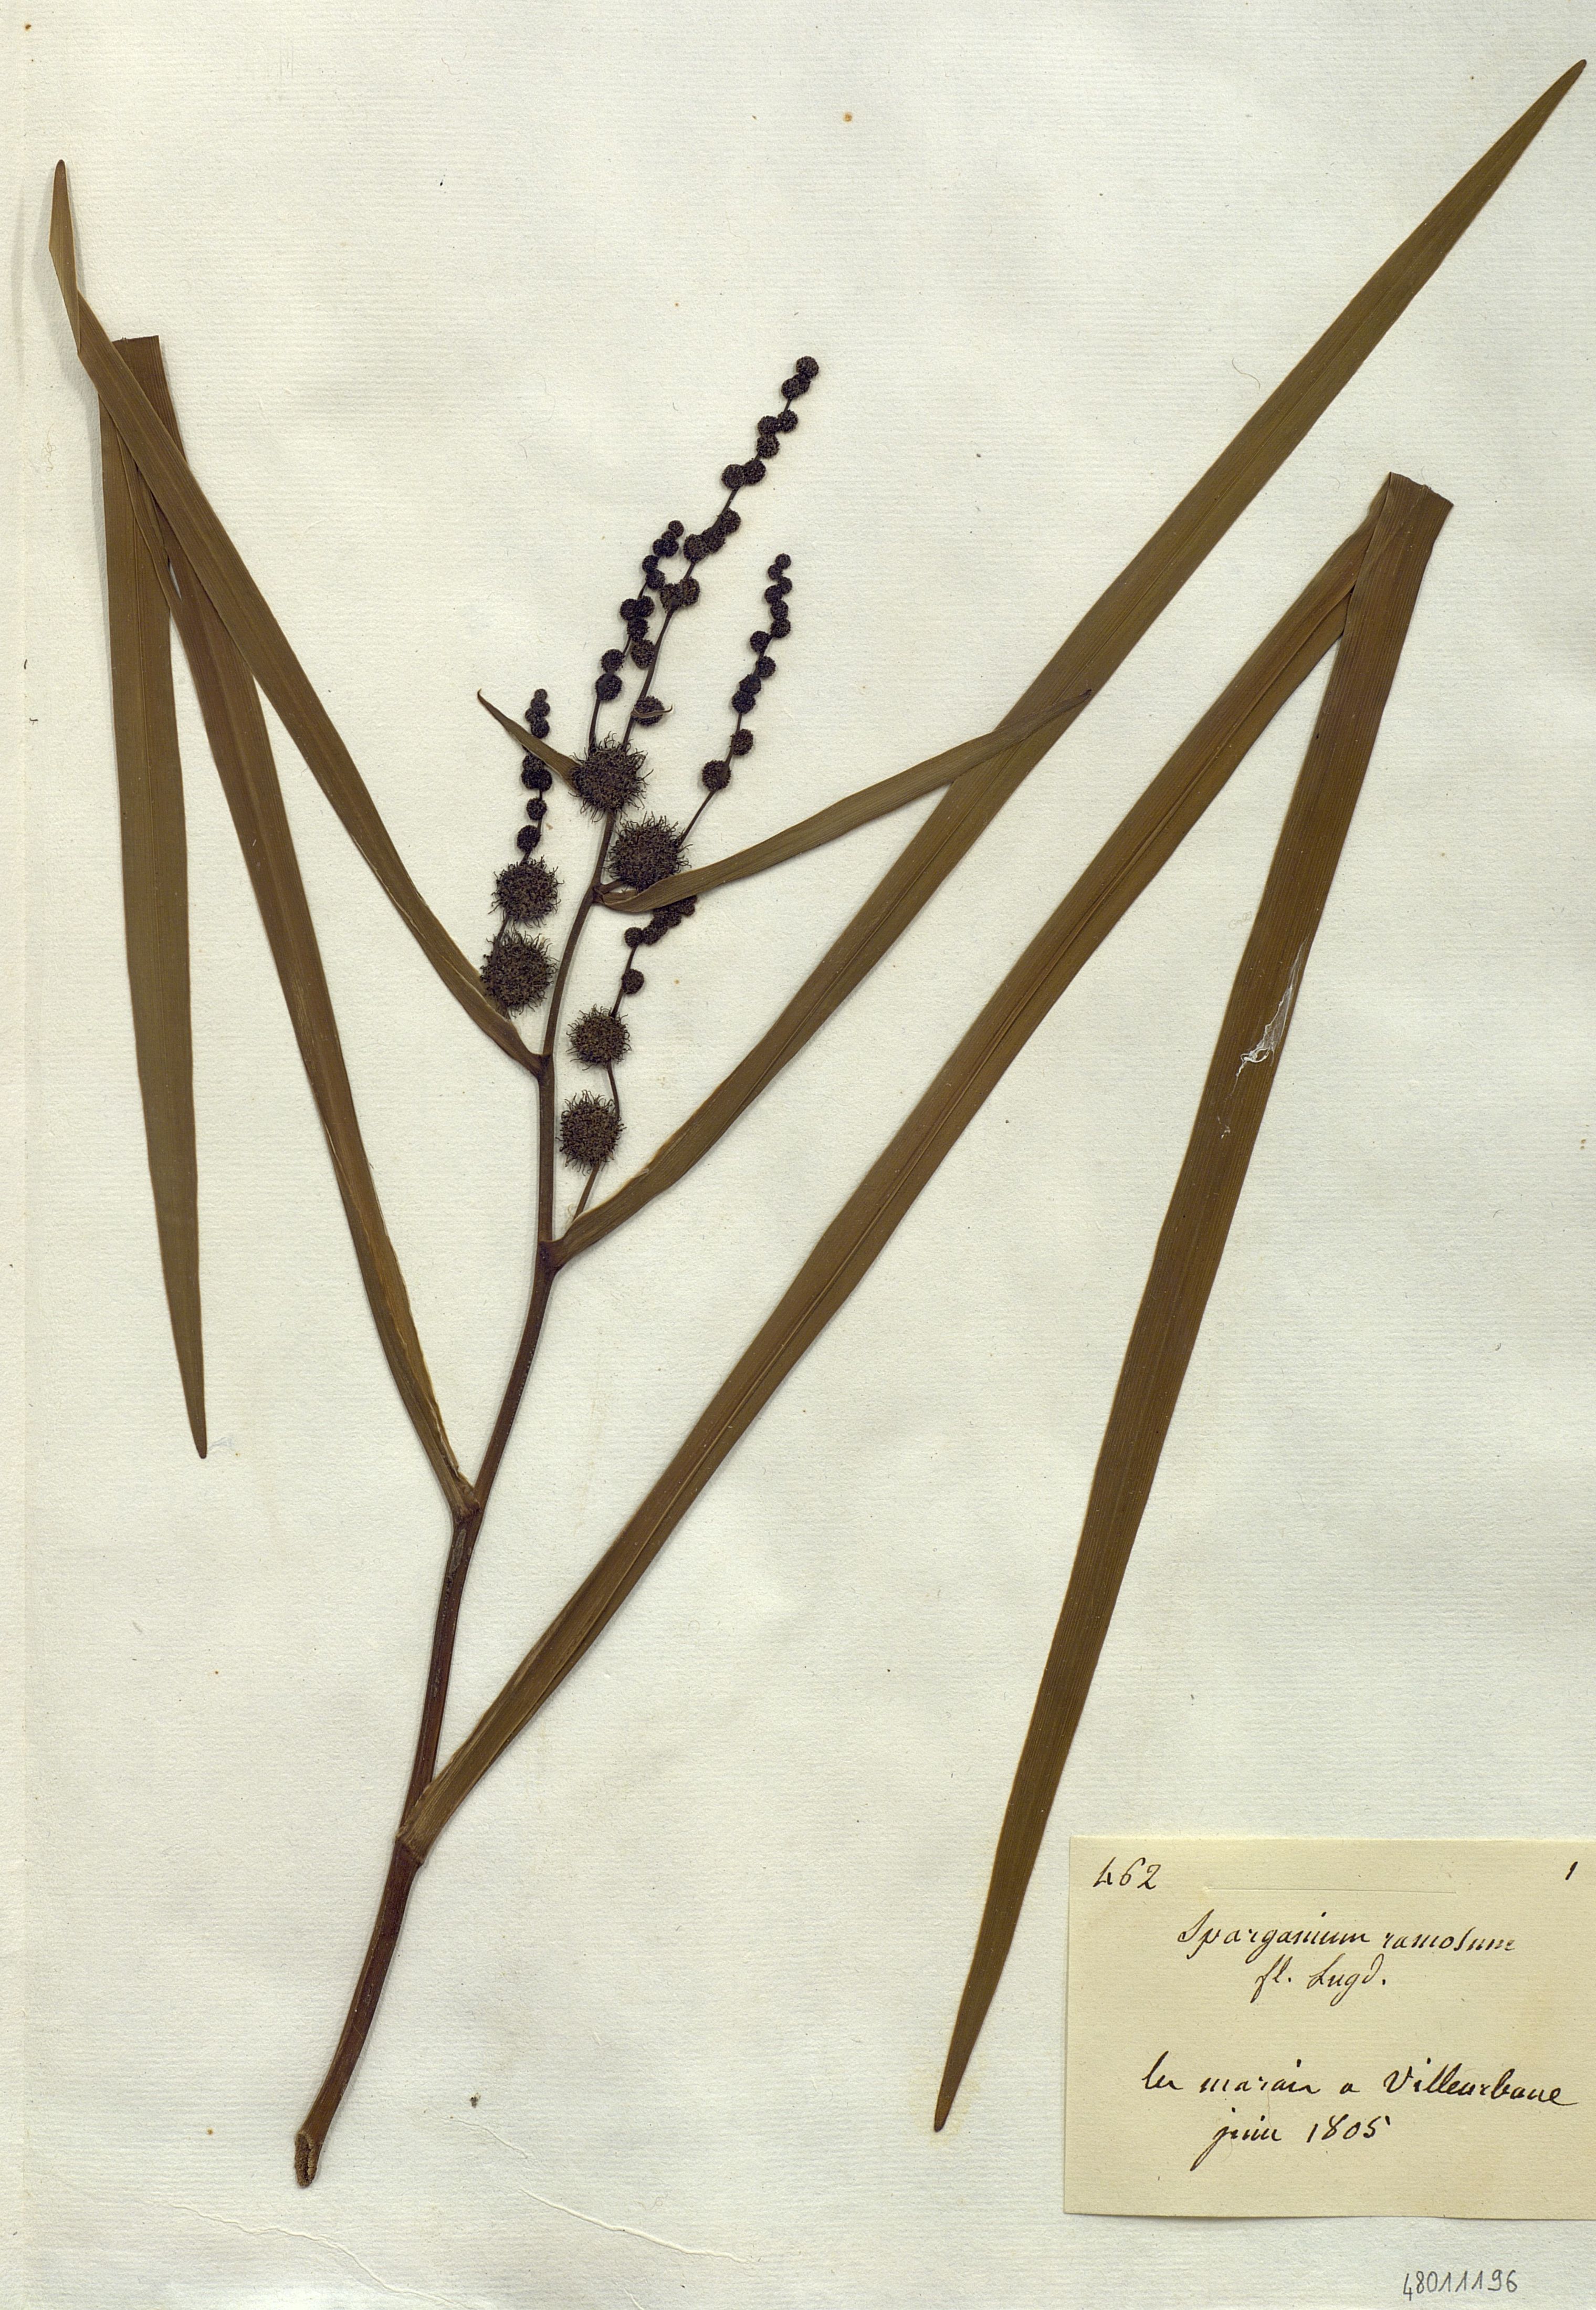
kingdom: Plantae
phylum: Tracheophyta
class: Liliopsida
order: Poales
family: Typhaceae
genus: Sparganium
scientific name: Sparganium erectum
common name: Branched bur-reed
